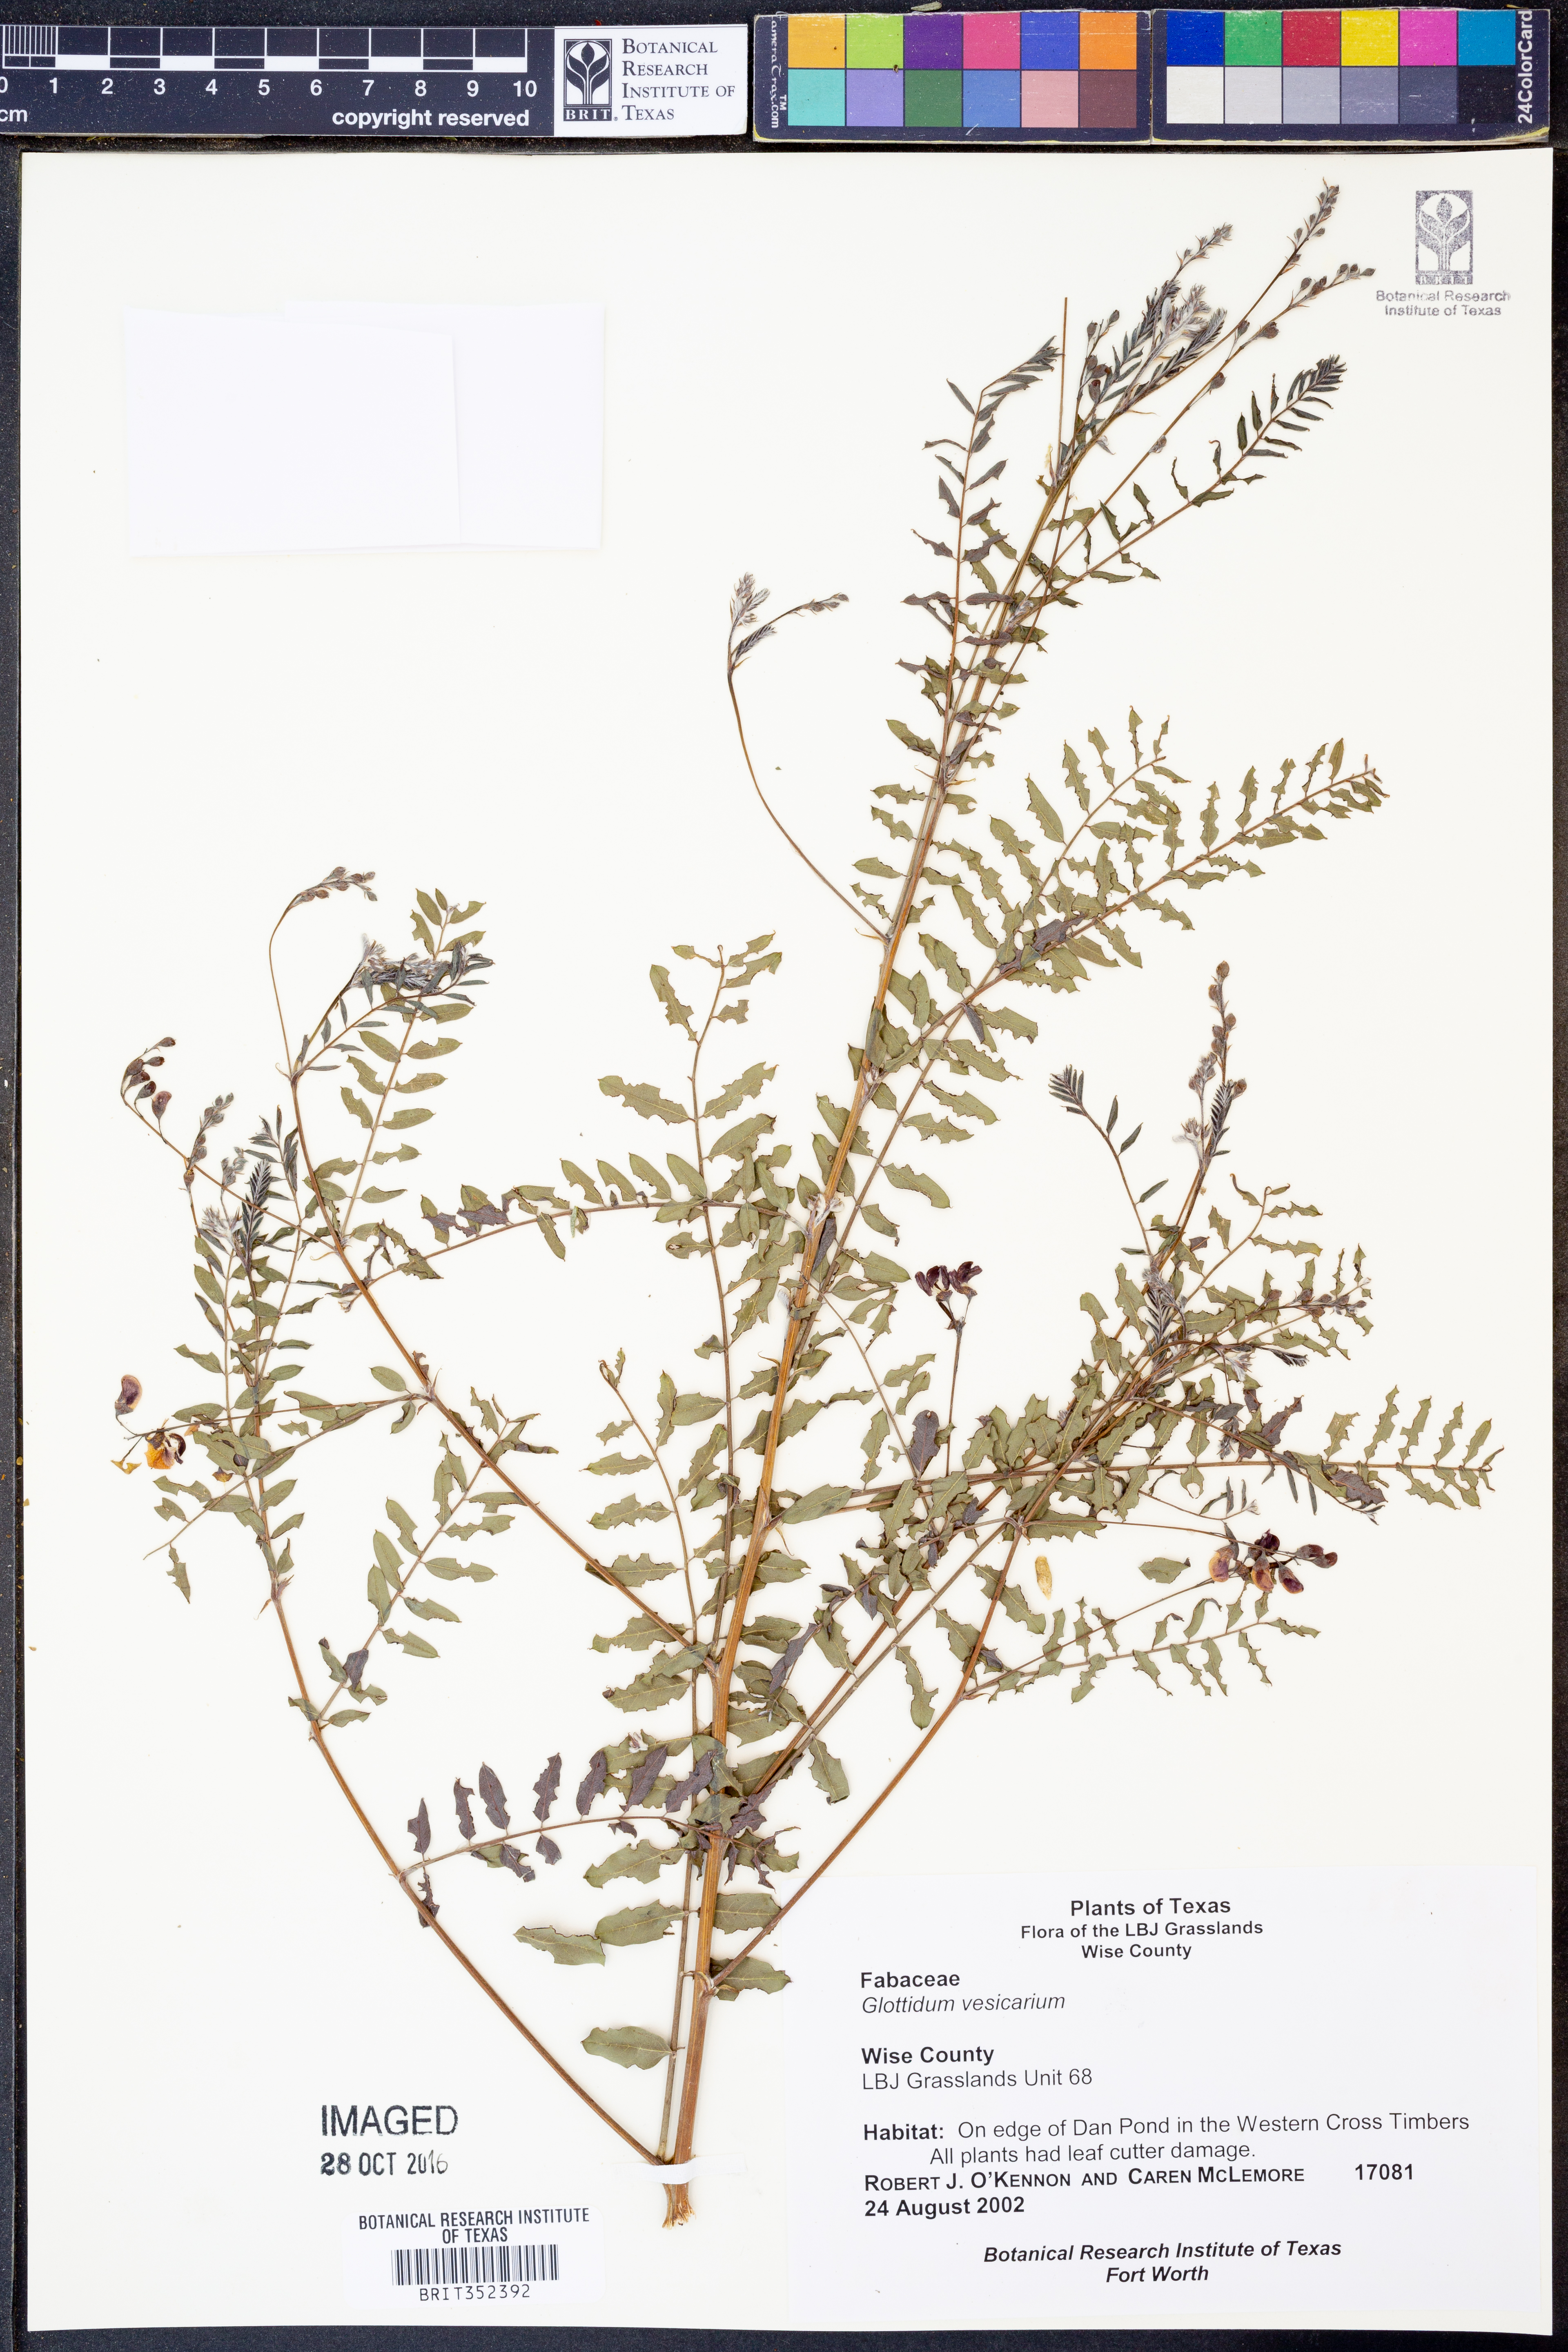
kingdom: Plantae
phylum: Tracheophyta
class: Magnoliopsida
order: Fabales
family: Fabaceae
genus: Sesbania
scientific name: Sesbania vesicaria
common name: Bagpod
